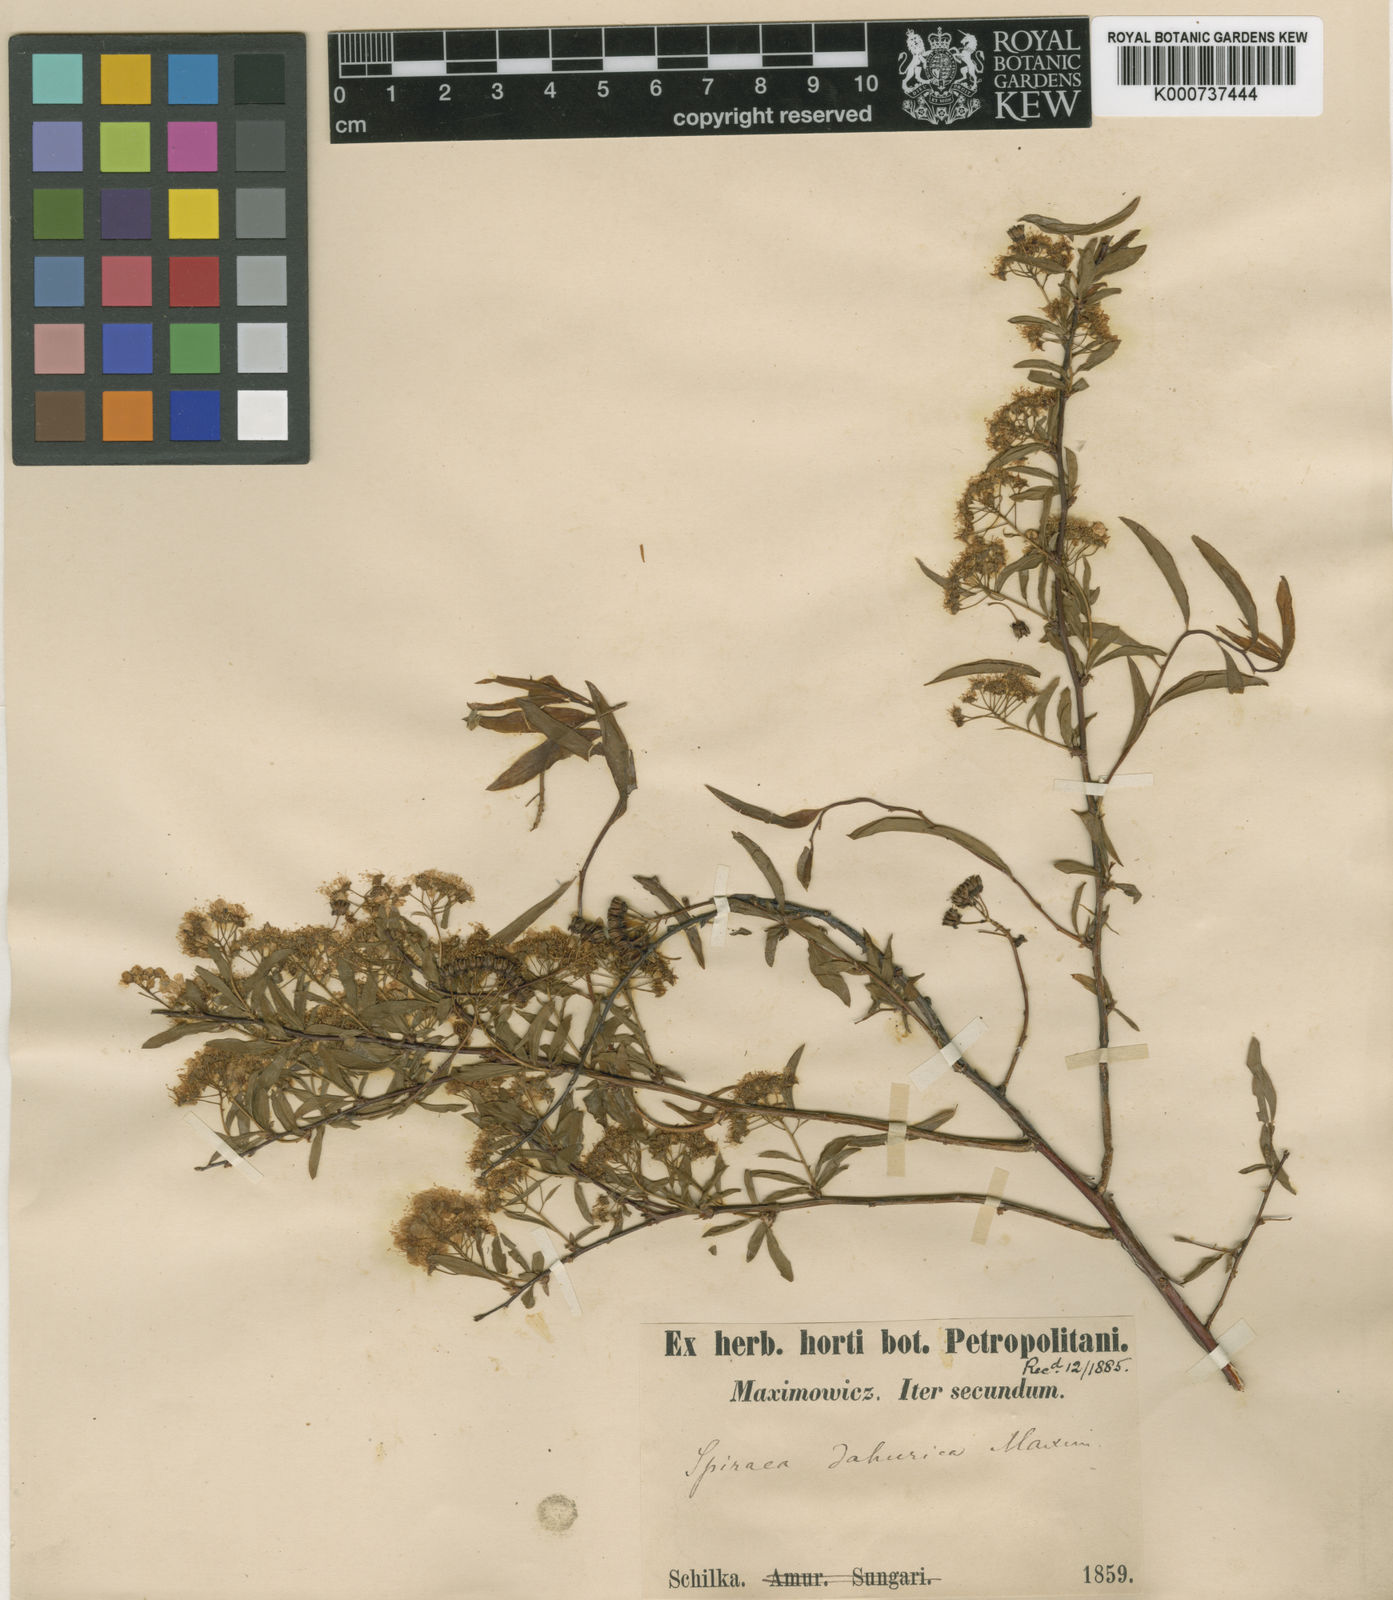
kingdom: Plantae
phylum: Tracheophyta
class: Magnoliopsida
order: Rosales
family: Rosaceae
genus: Spiraea
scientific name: Spiraea dahurica
